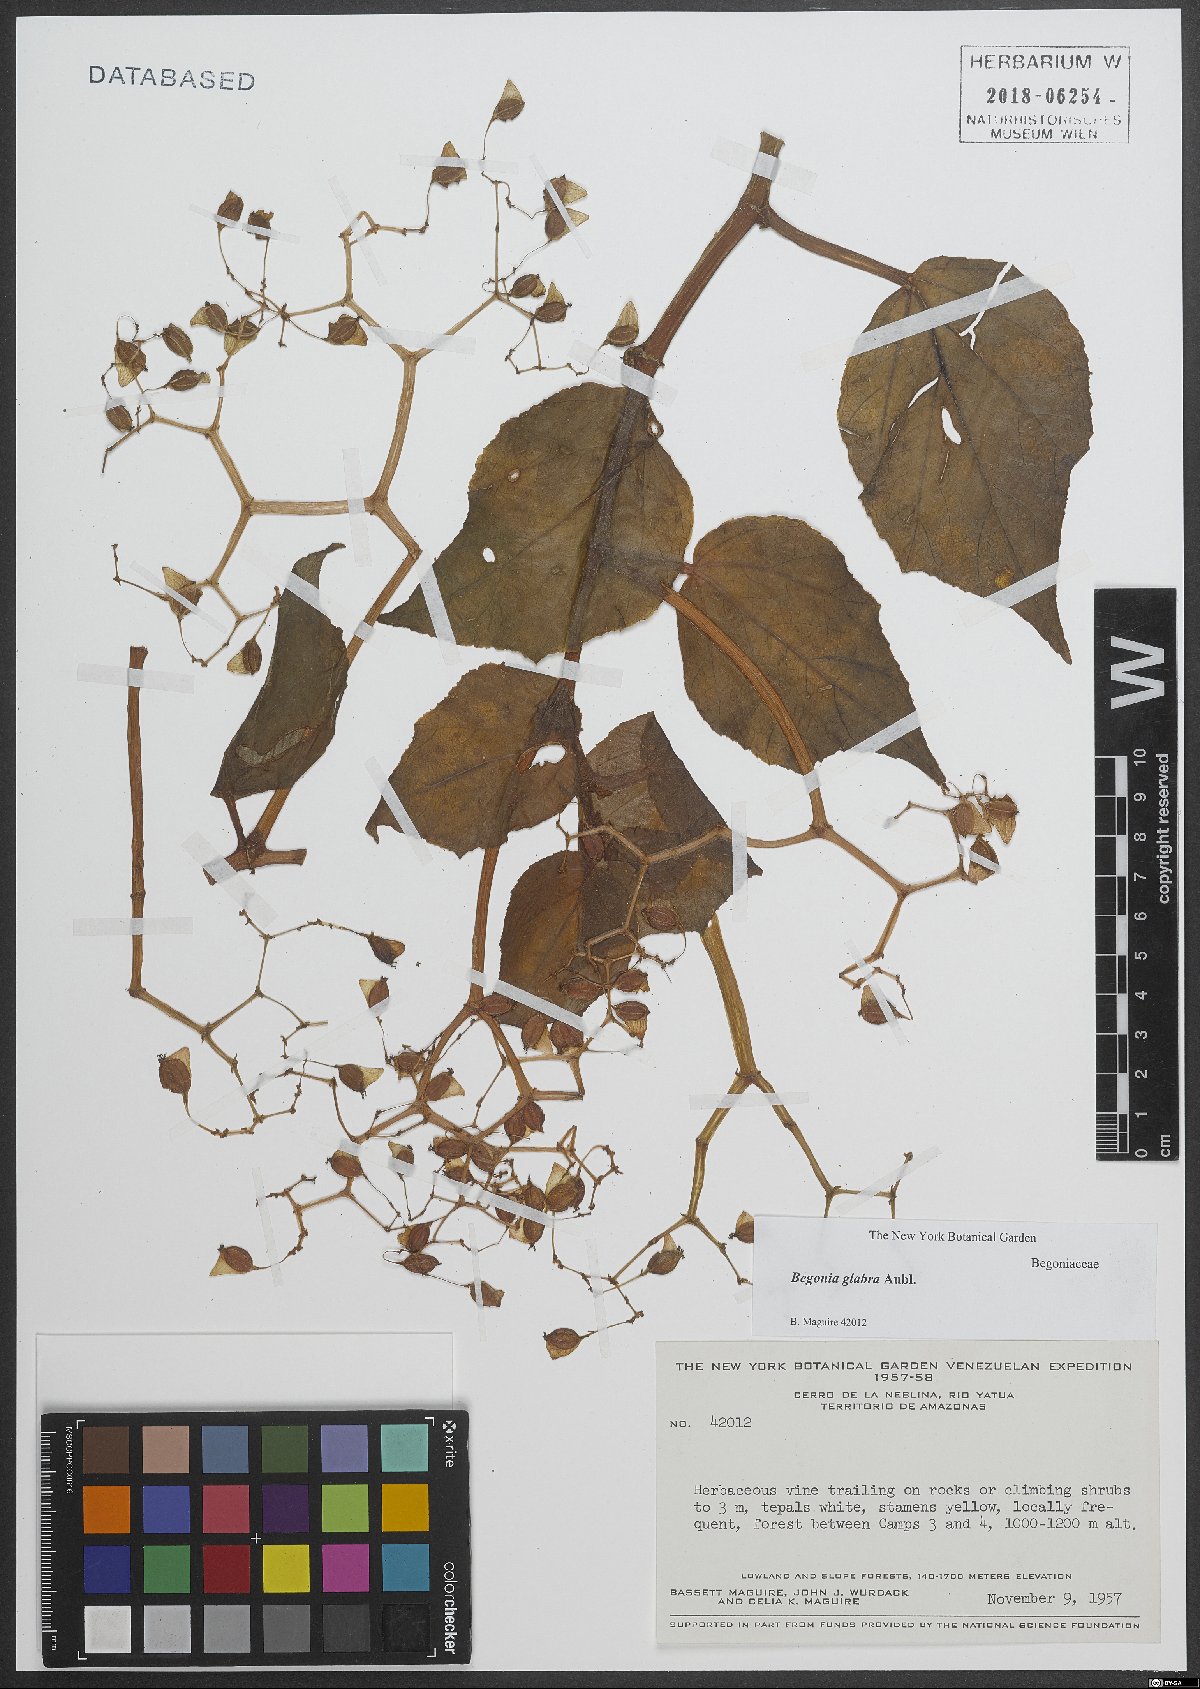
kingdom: Plantae
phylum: Tracheophyta
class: Magnoliopsida
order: Cucurbitales
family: Begoniaceae
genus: Begonia
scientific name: Begonia glabra
